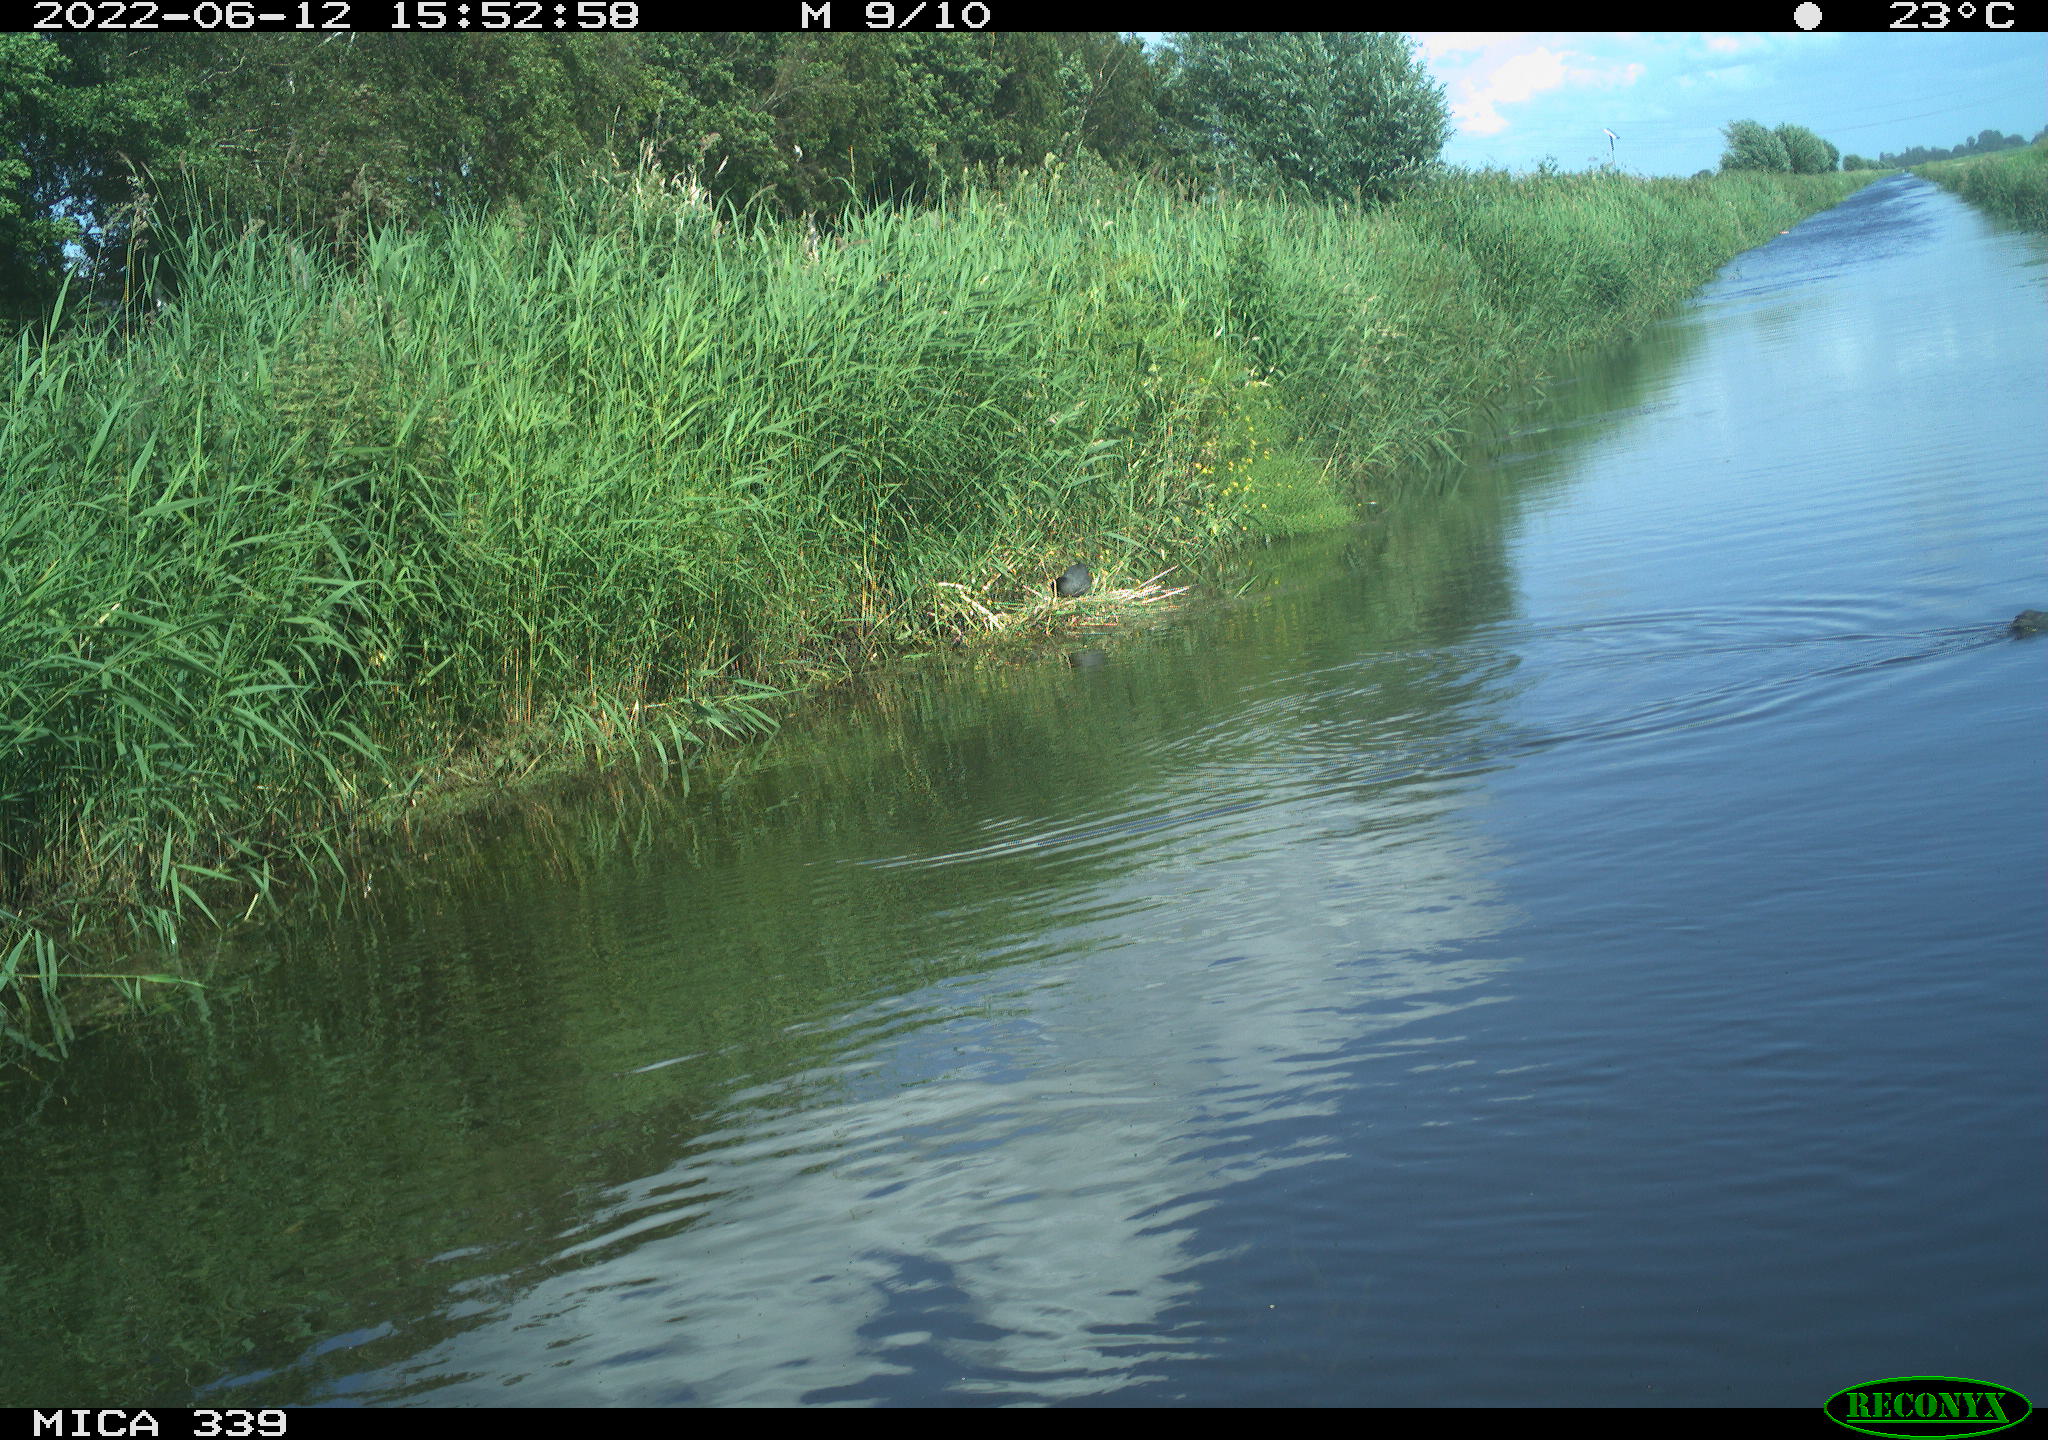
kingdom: Animalia
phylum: Chordata
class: Aves
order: Gruiformes
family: Rallidae
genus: Fulica
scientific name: Fulica atra
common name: Eurasian coot
